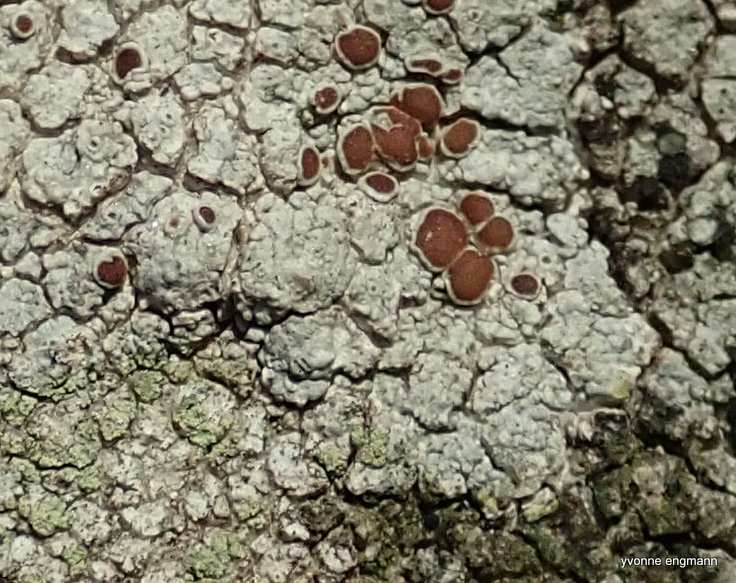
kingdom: Fungi
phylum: Ascomycota
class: Lecanoromycetes
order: Lecanorales
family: Lecanoraceae
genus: Lecanora
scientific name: Lecanora campestris
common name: mur-kantskivelav
